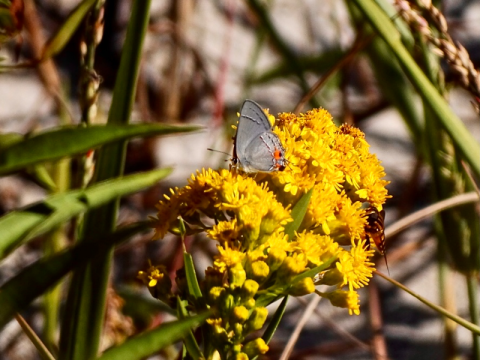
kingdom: Animalia
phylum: Arthropoda
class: Insecta
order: Lepidoptera
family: Lycaenidae
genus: Strymon
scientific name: Strymon melinus
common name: Gray Hairstreak
